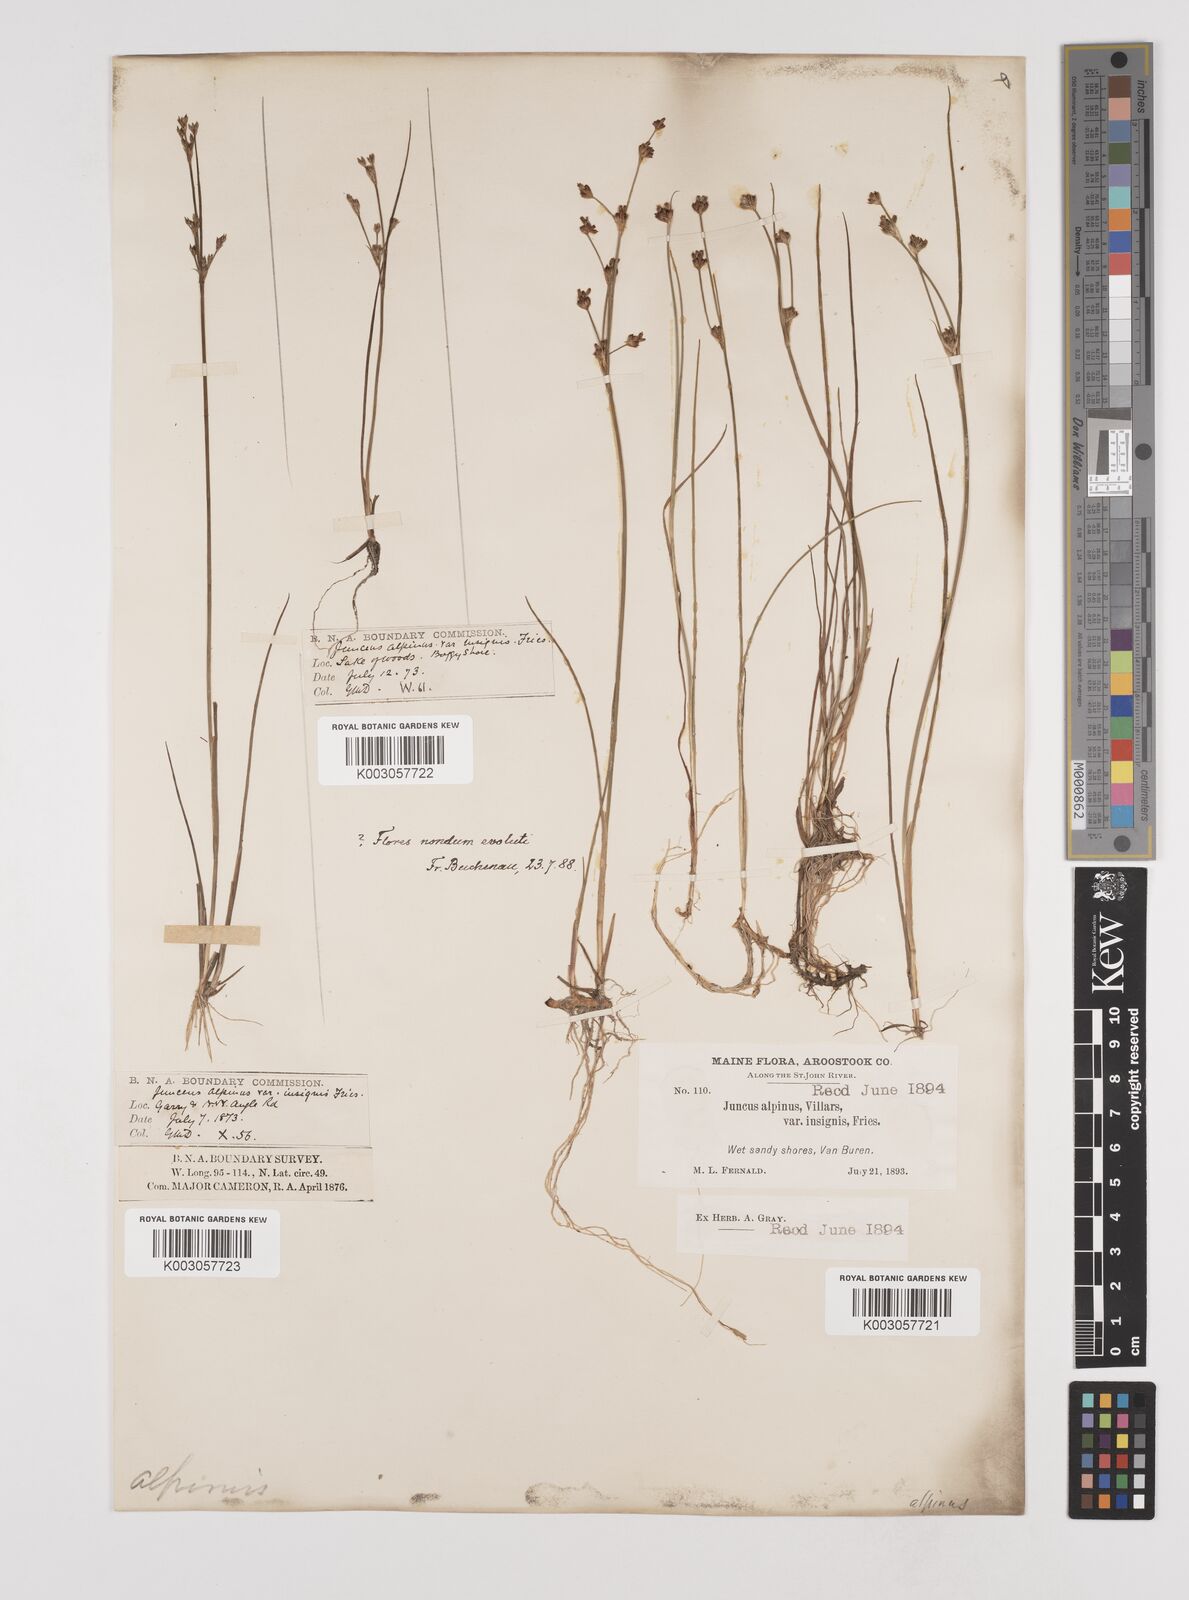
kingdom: Plantae
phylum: Tracheophyta
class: Liliopsida
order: Poales
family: Juncaceae
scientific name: Juncaceae
